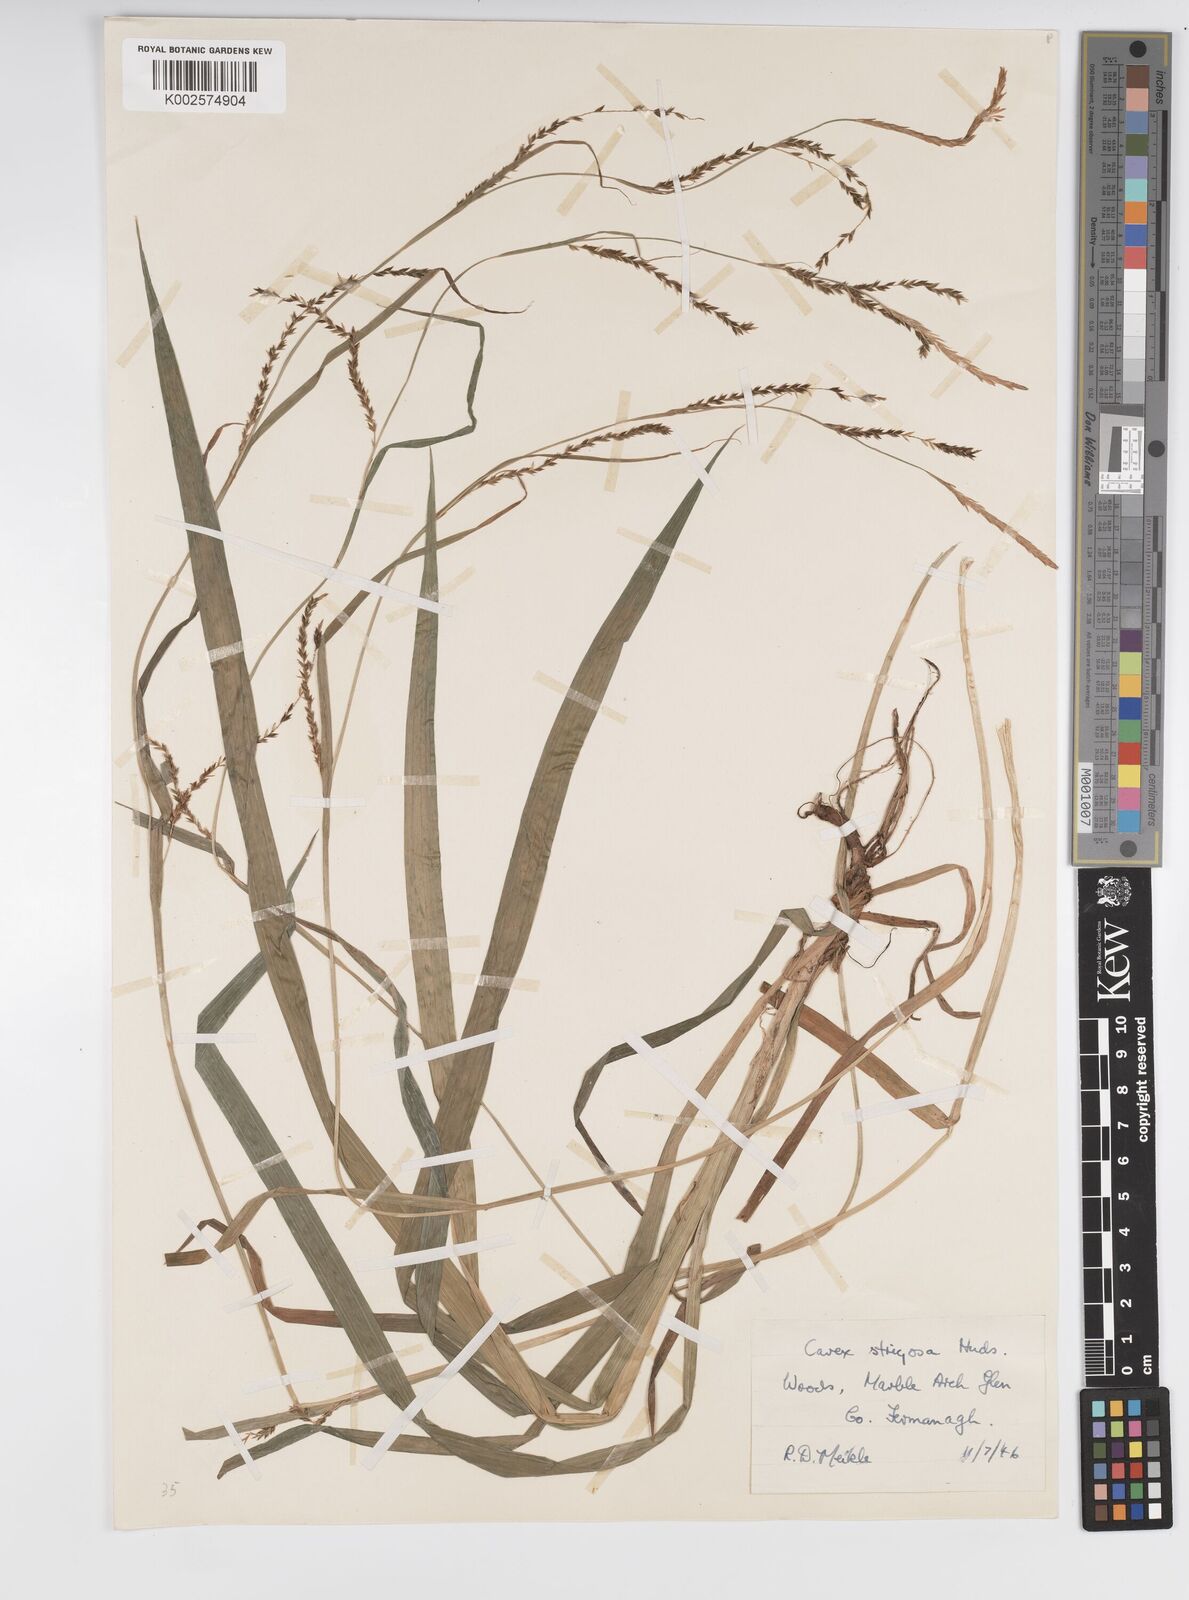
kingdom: Plantae
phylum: Tracheophyta
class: Liliopsida
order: Poales
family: Cyperaceae
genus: Carex
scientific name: Carex strigosa
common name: Thin-spiked wood-sedge
